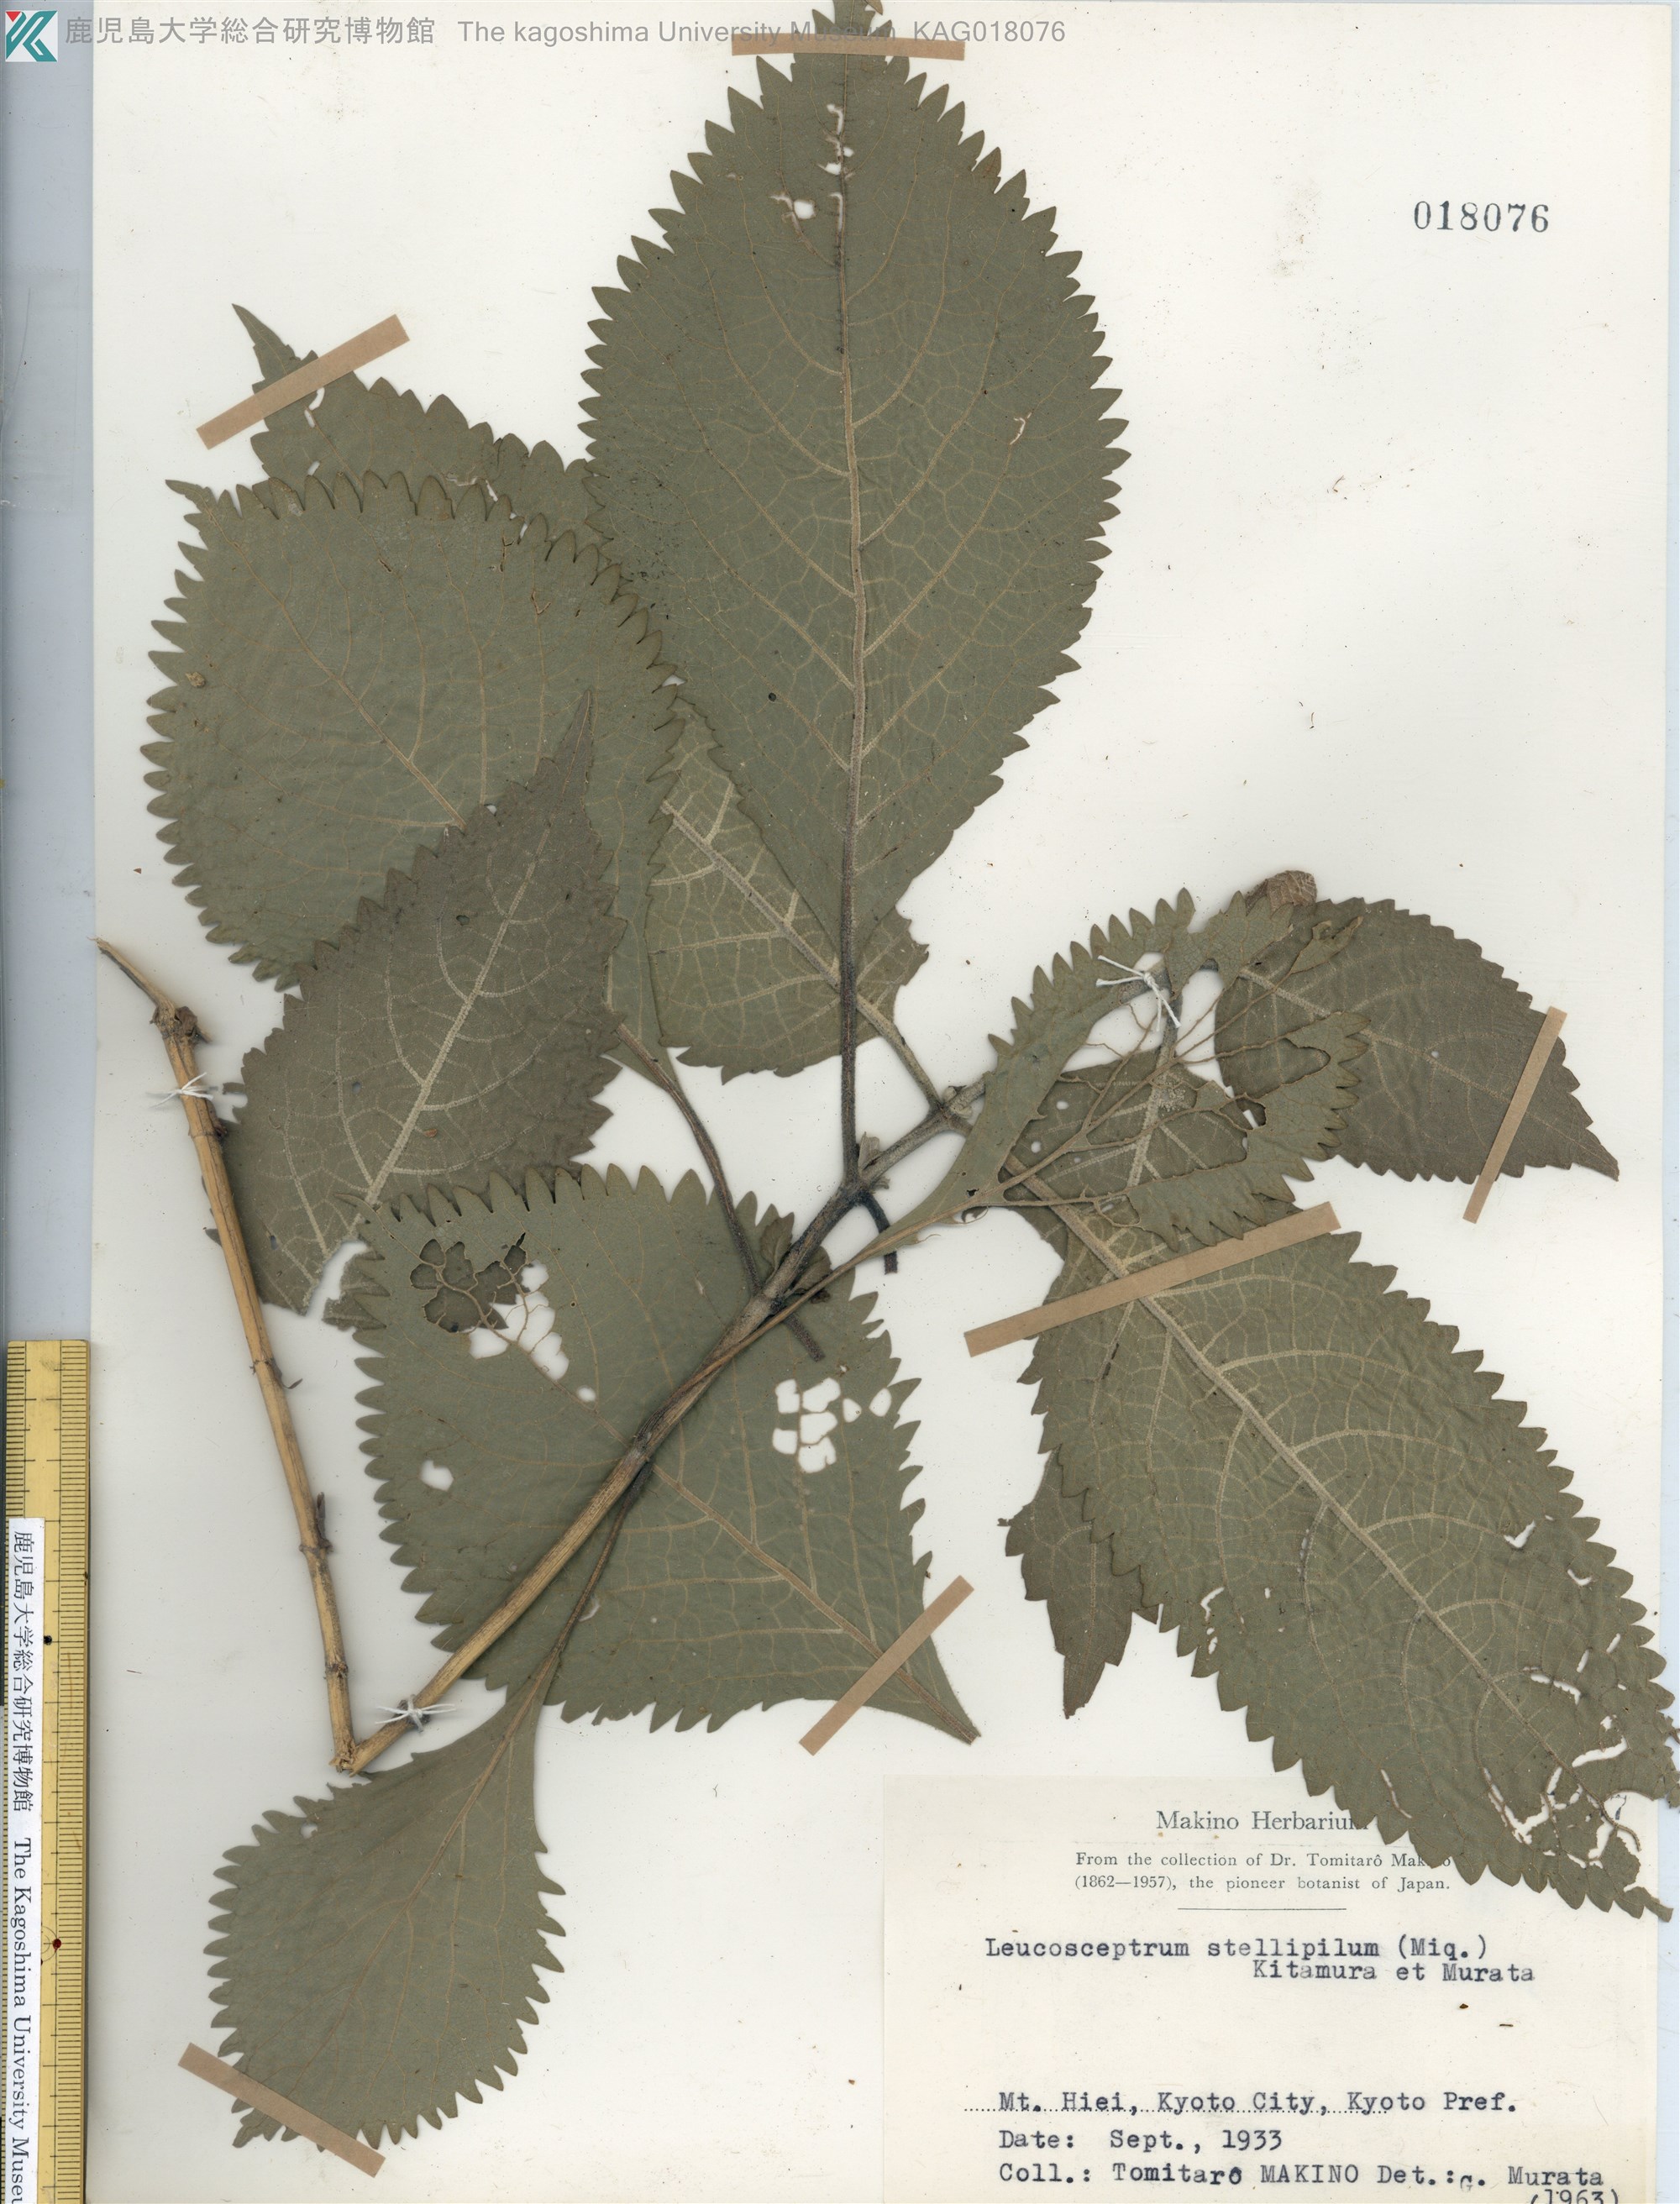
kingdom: Plantae
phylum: Tracheophyta
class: Magnoliopsida
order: Lamiales
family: Lamiaceae
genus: Comanthosphace
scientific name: Comanthosphace stellipila
